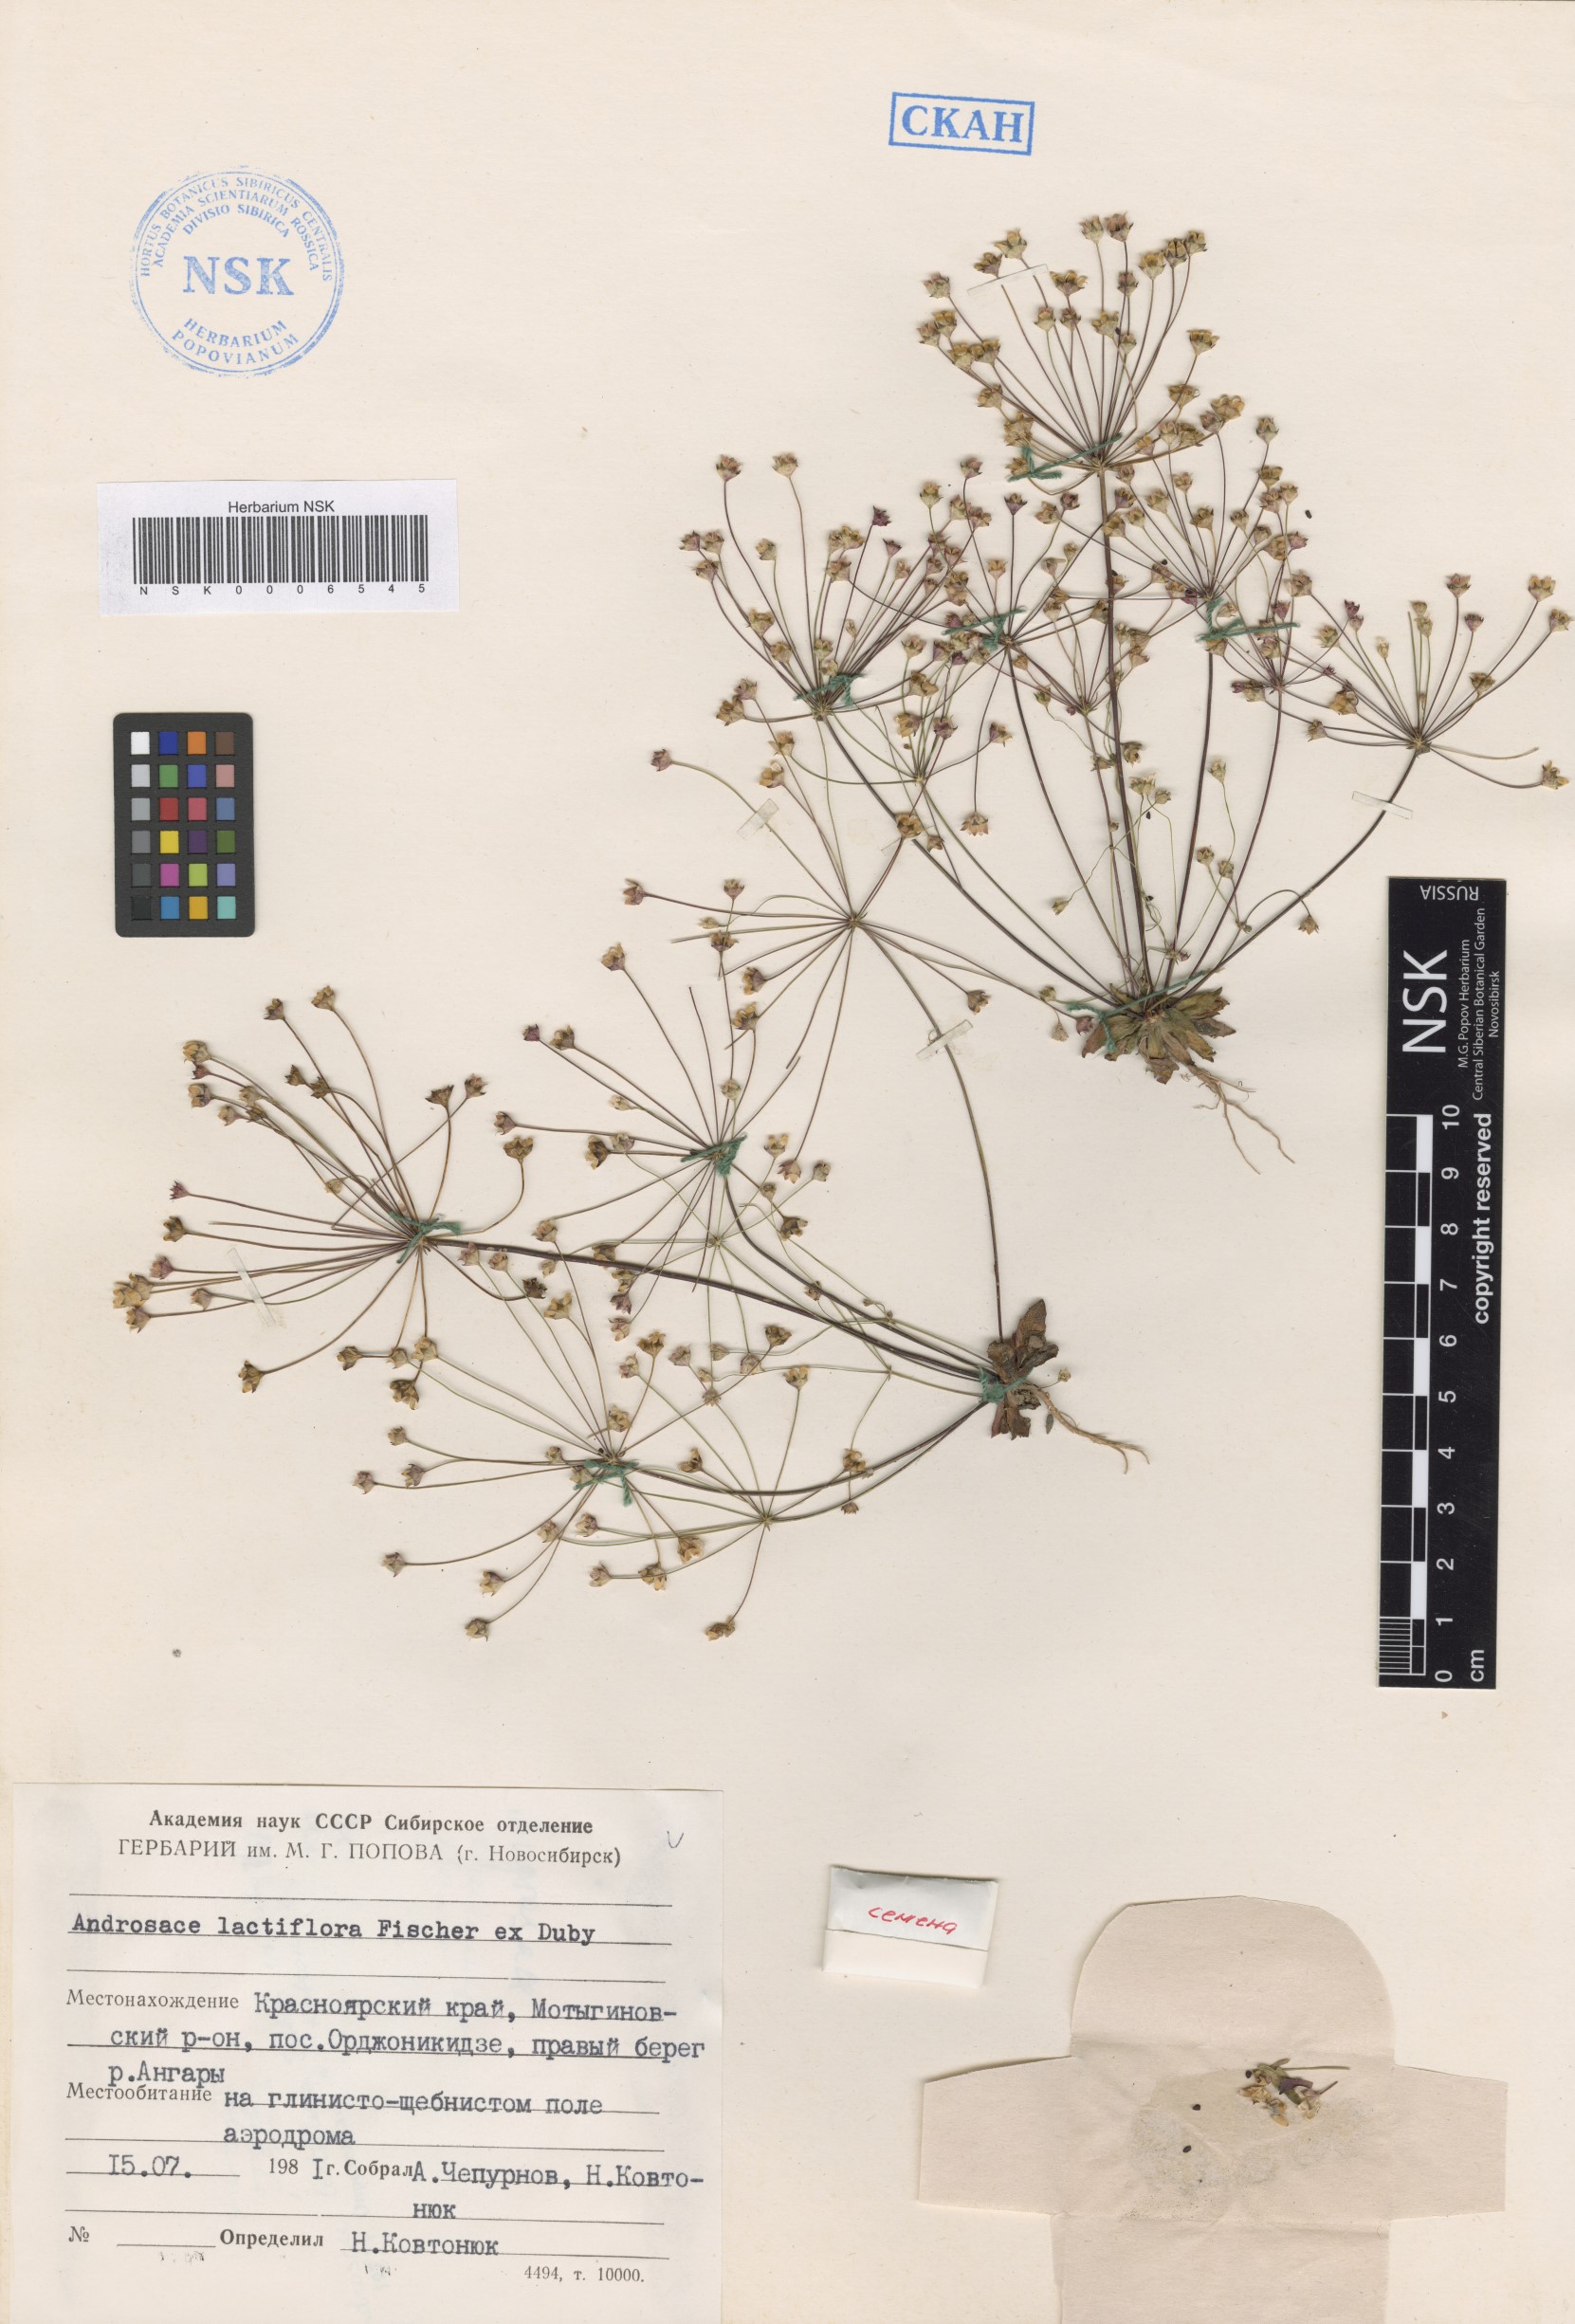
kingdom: Plantae
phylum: Tracheophyta
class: Magnoliopsida
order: Ericales
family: Primulaceae
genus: Androsace
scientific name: Androsace lactiflora
